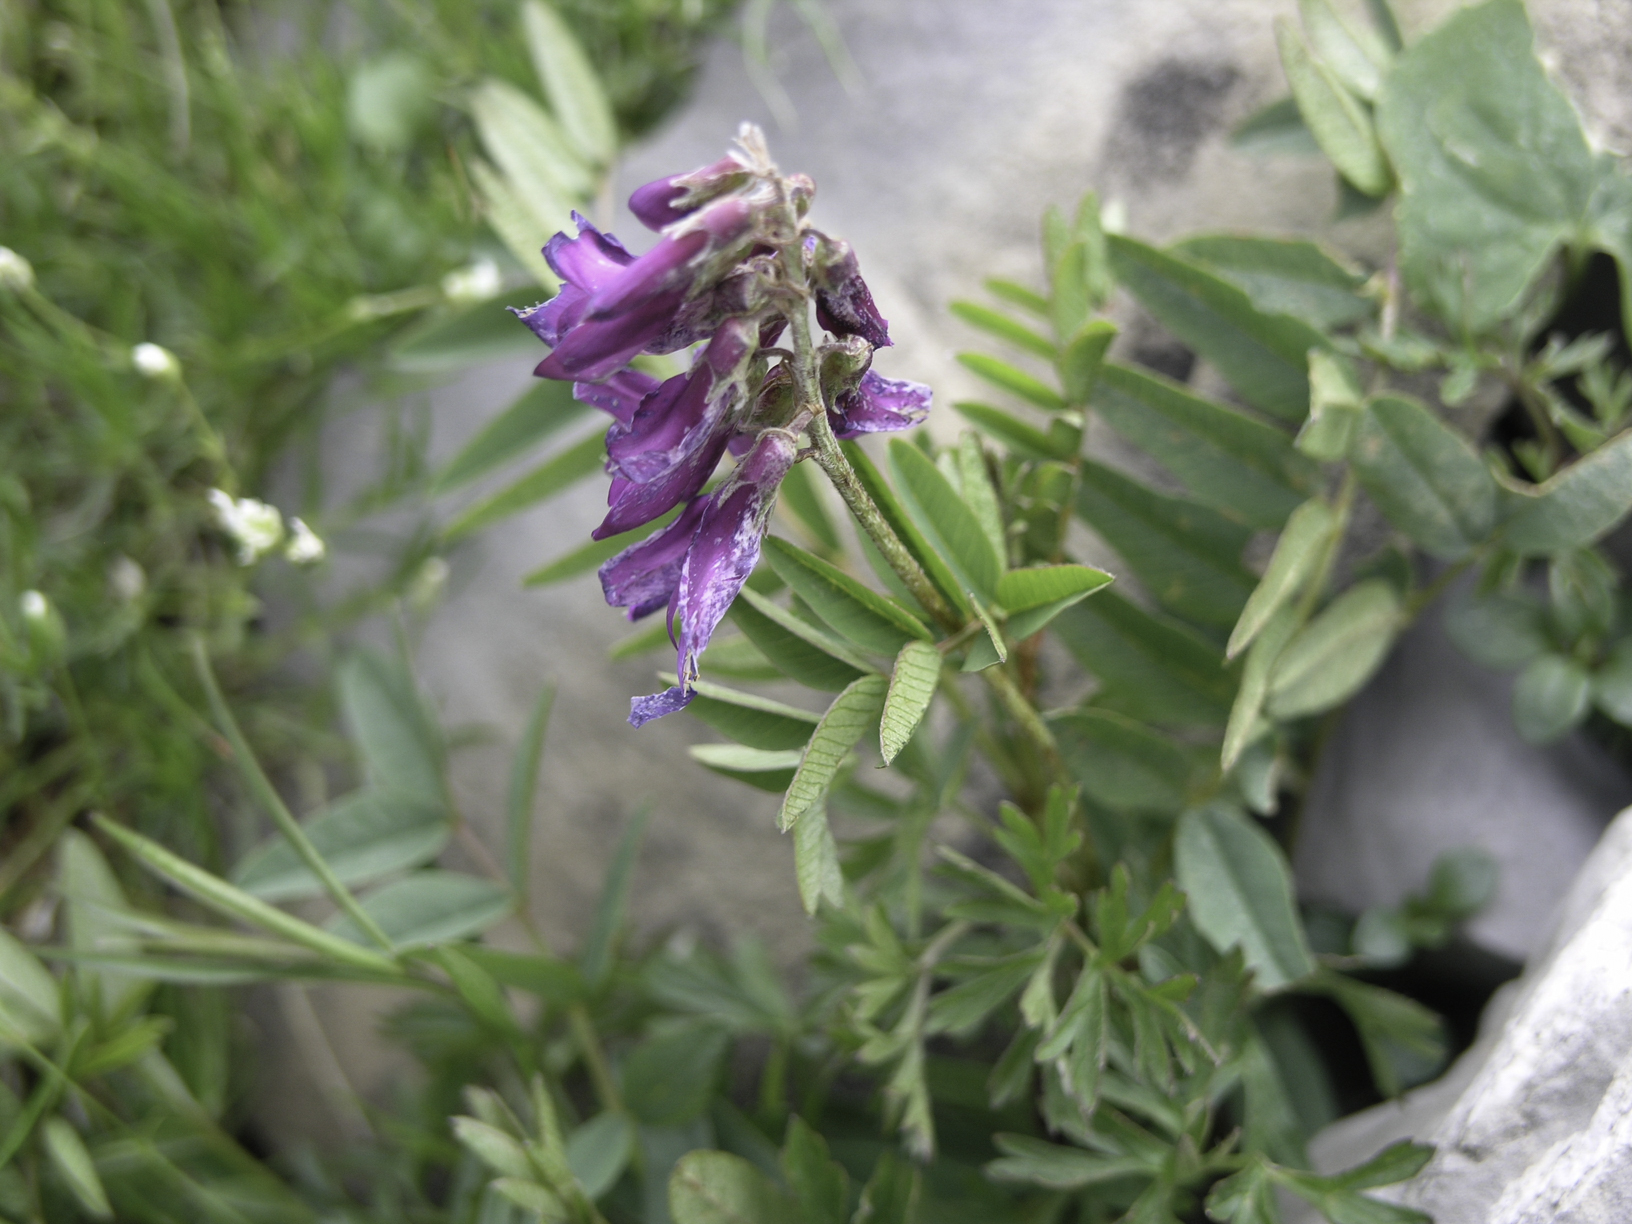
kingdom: Plantae
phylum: Tracheophyta
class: Magnoliopsida
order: Fabales
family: Fabaceae
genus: Hedysarum
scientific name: Hedysarum hedysaroides
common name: Alpine french-honeysuckle
